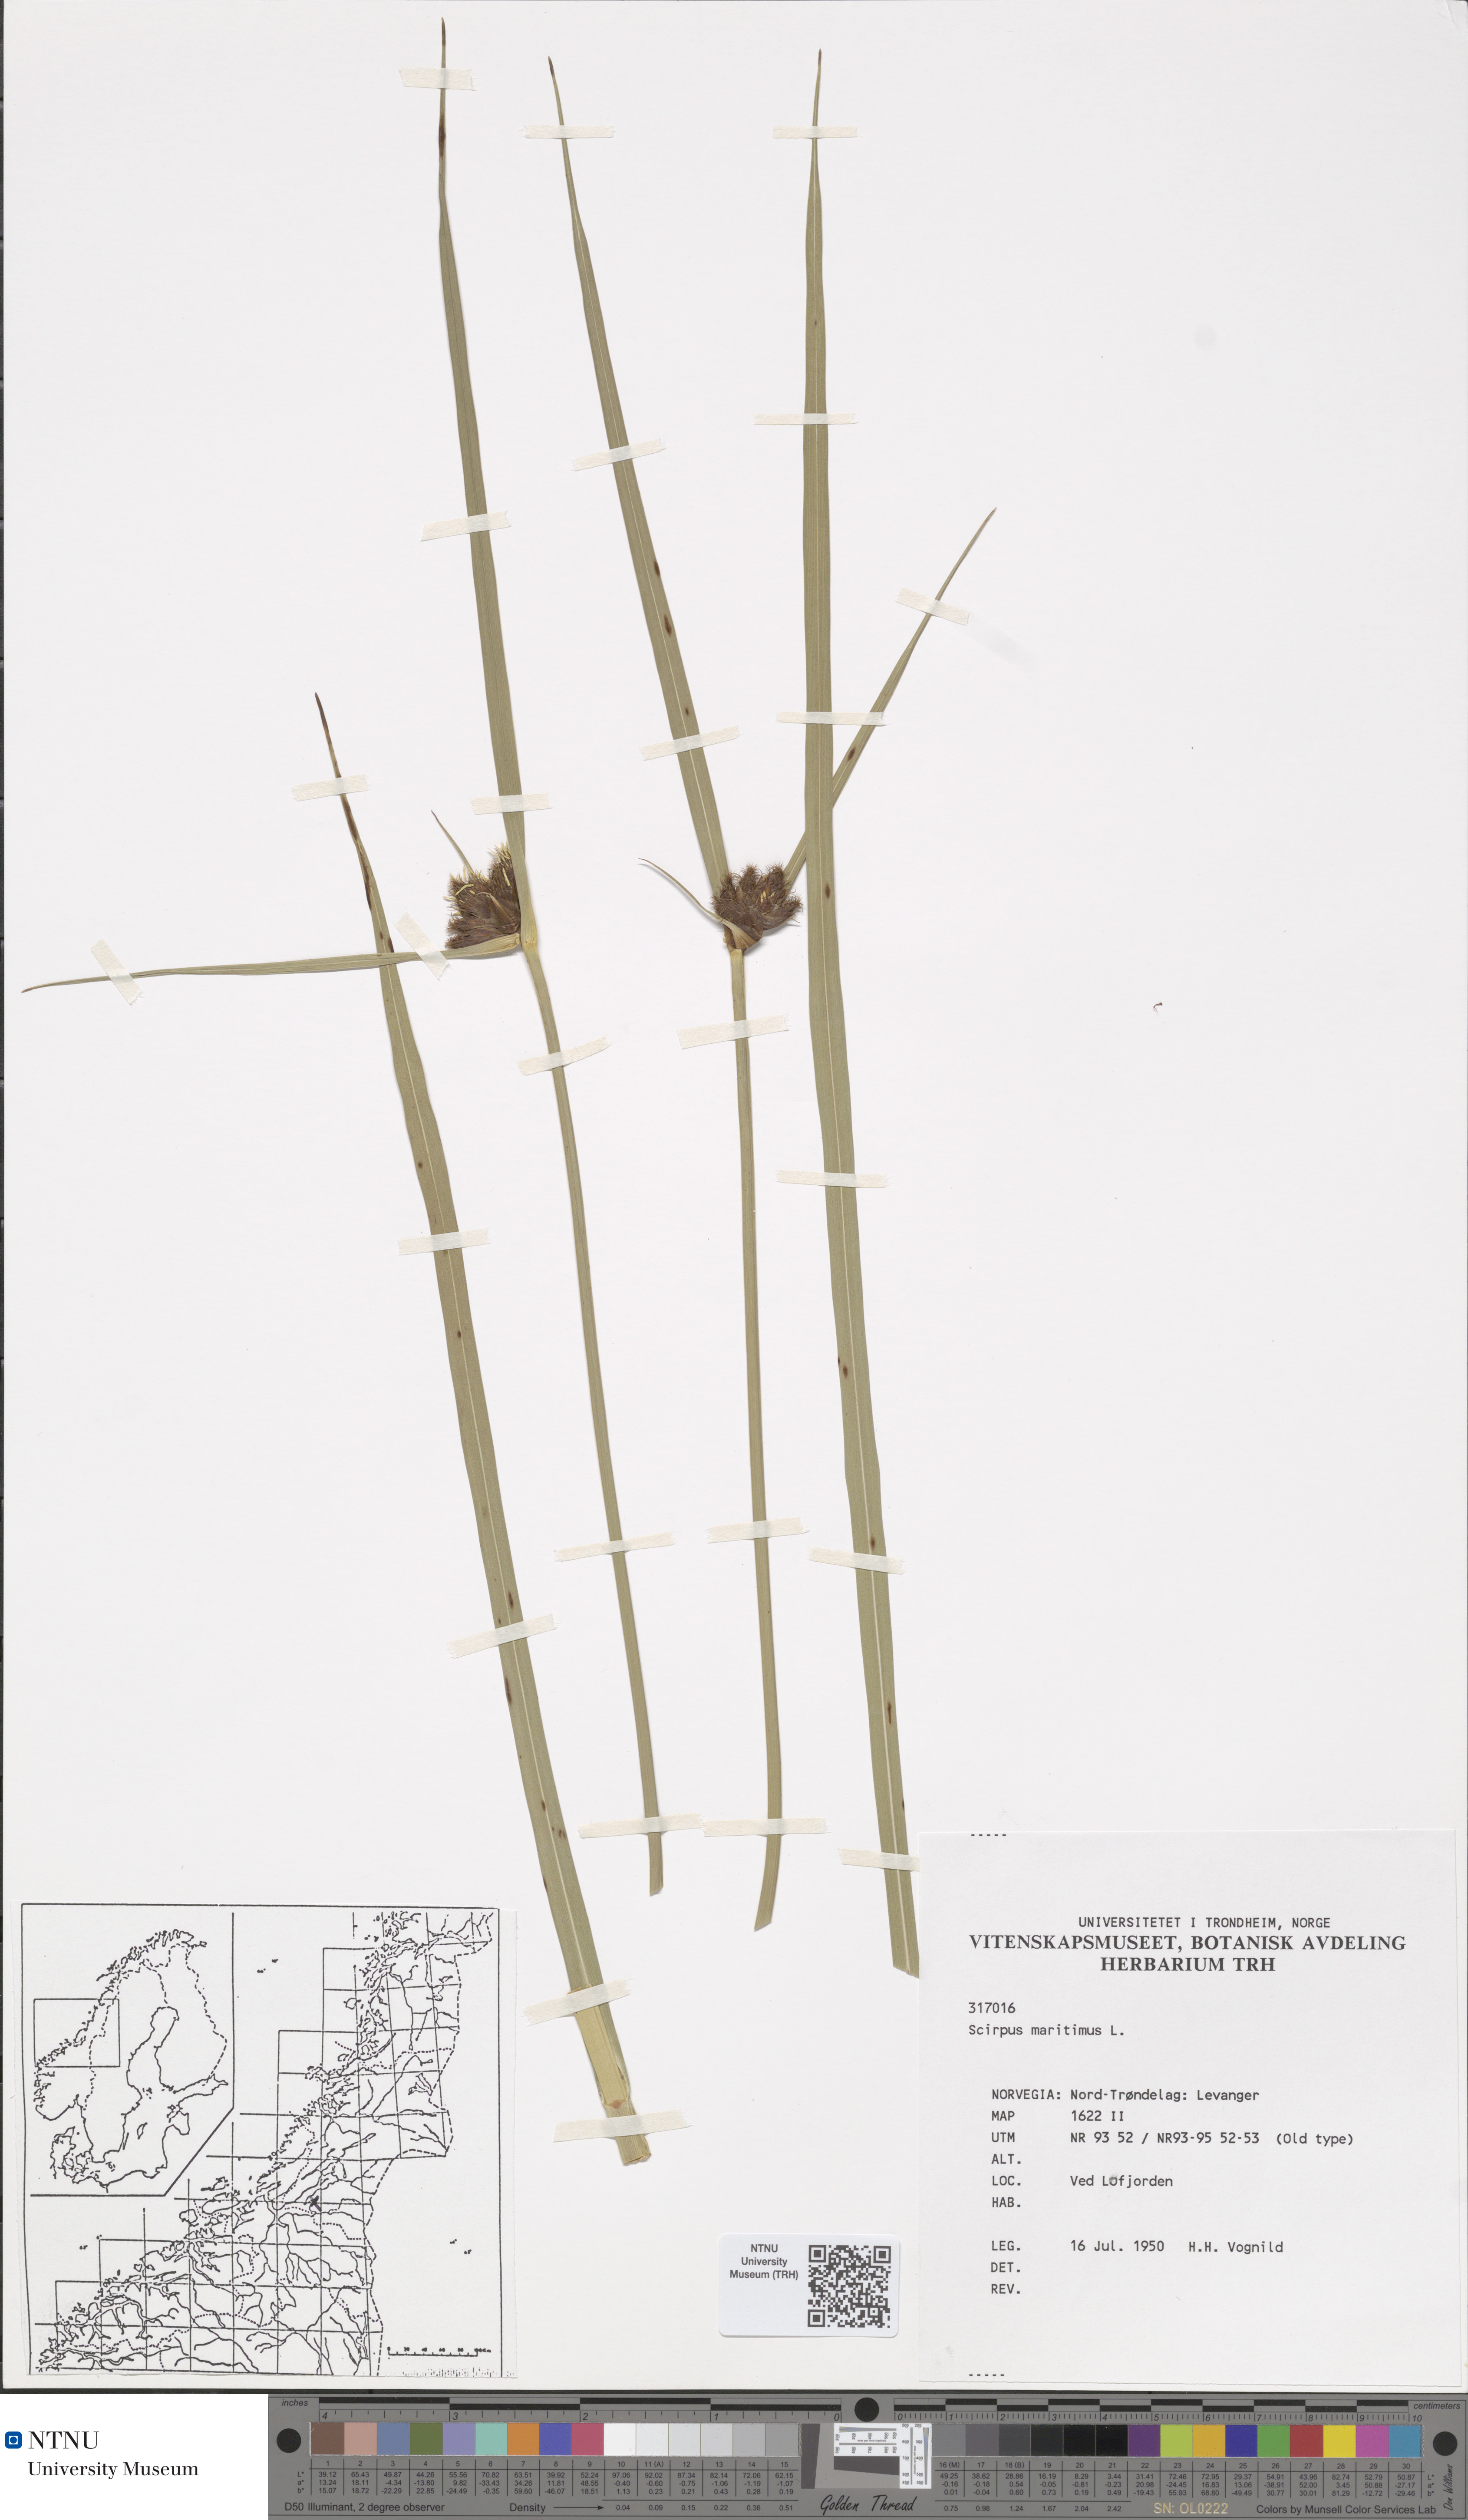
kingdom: Plantae
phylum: Tracheophyta
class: Liliopsida
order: Poales
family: Cyperaceae
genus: Bolboschoenus
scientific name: Bolboschoenus maritimus
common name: Sea club-rush
